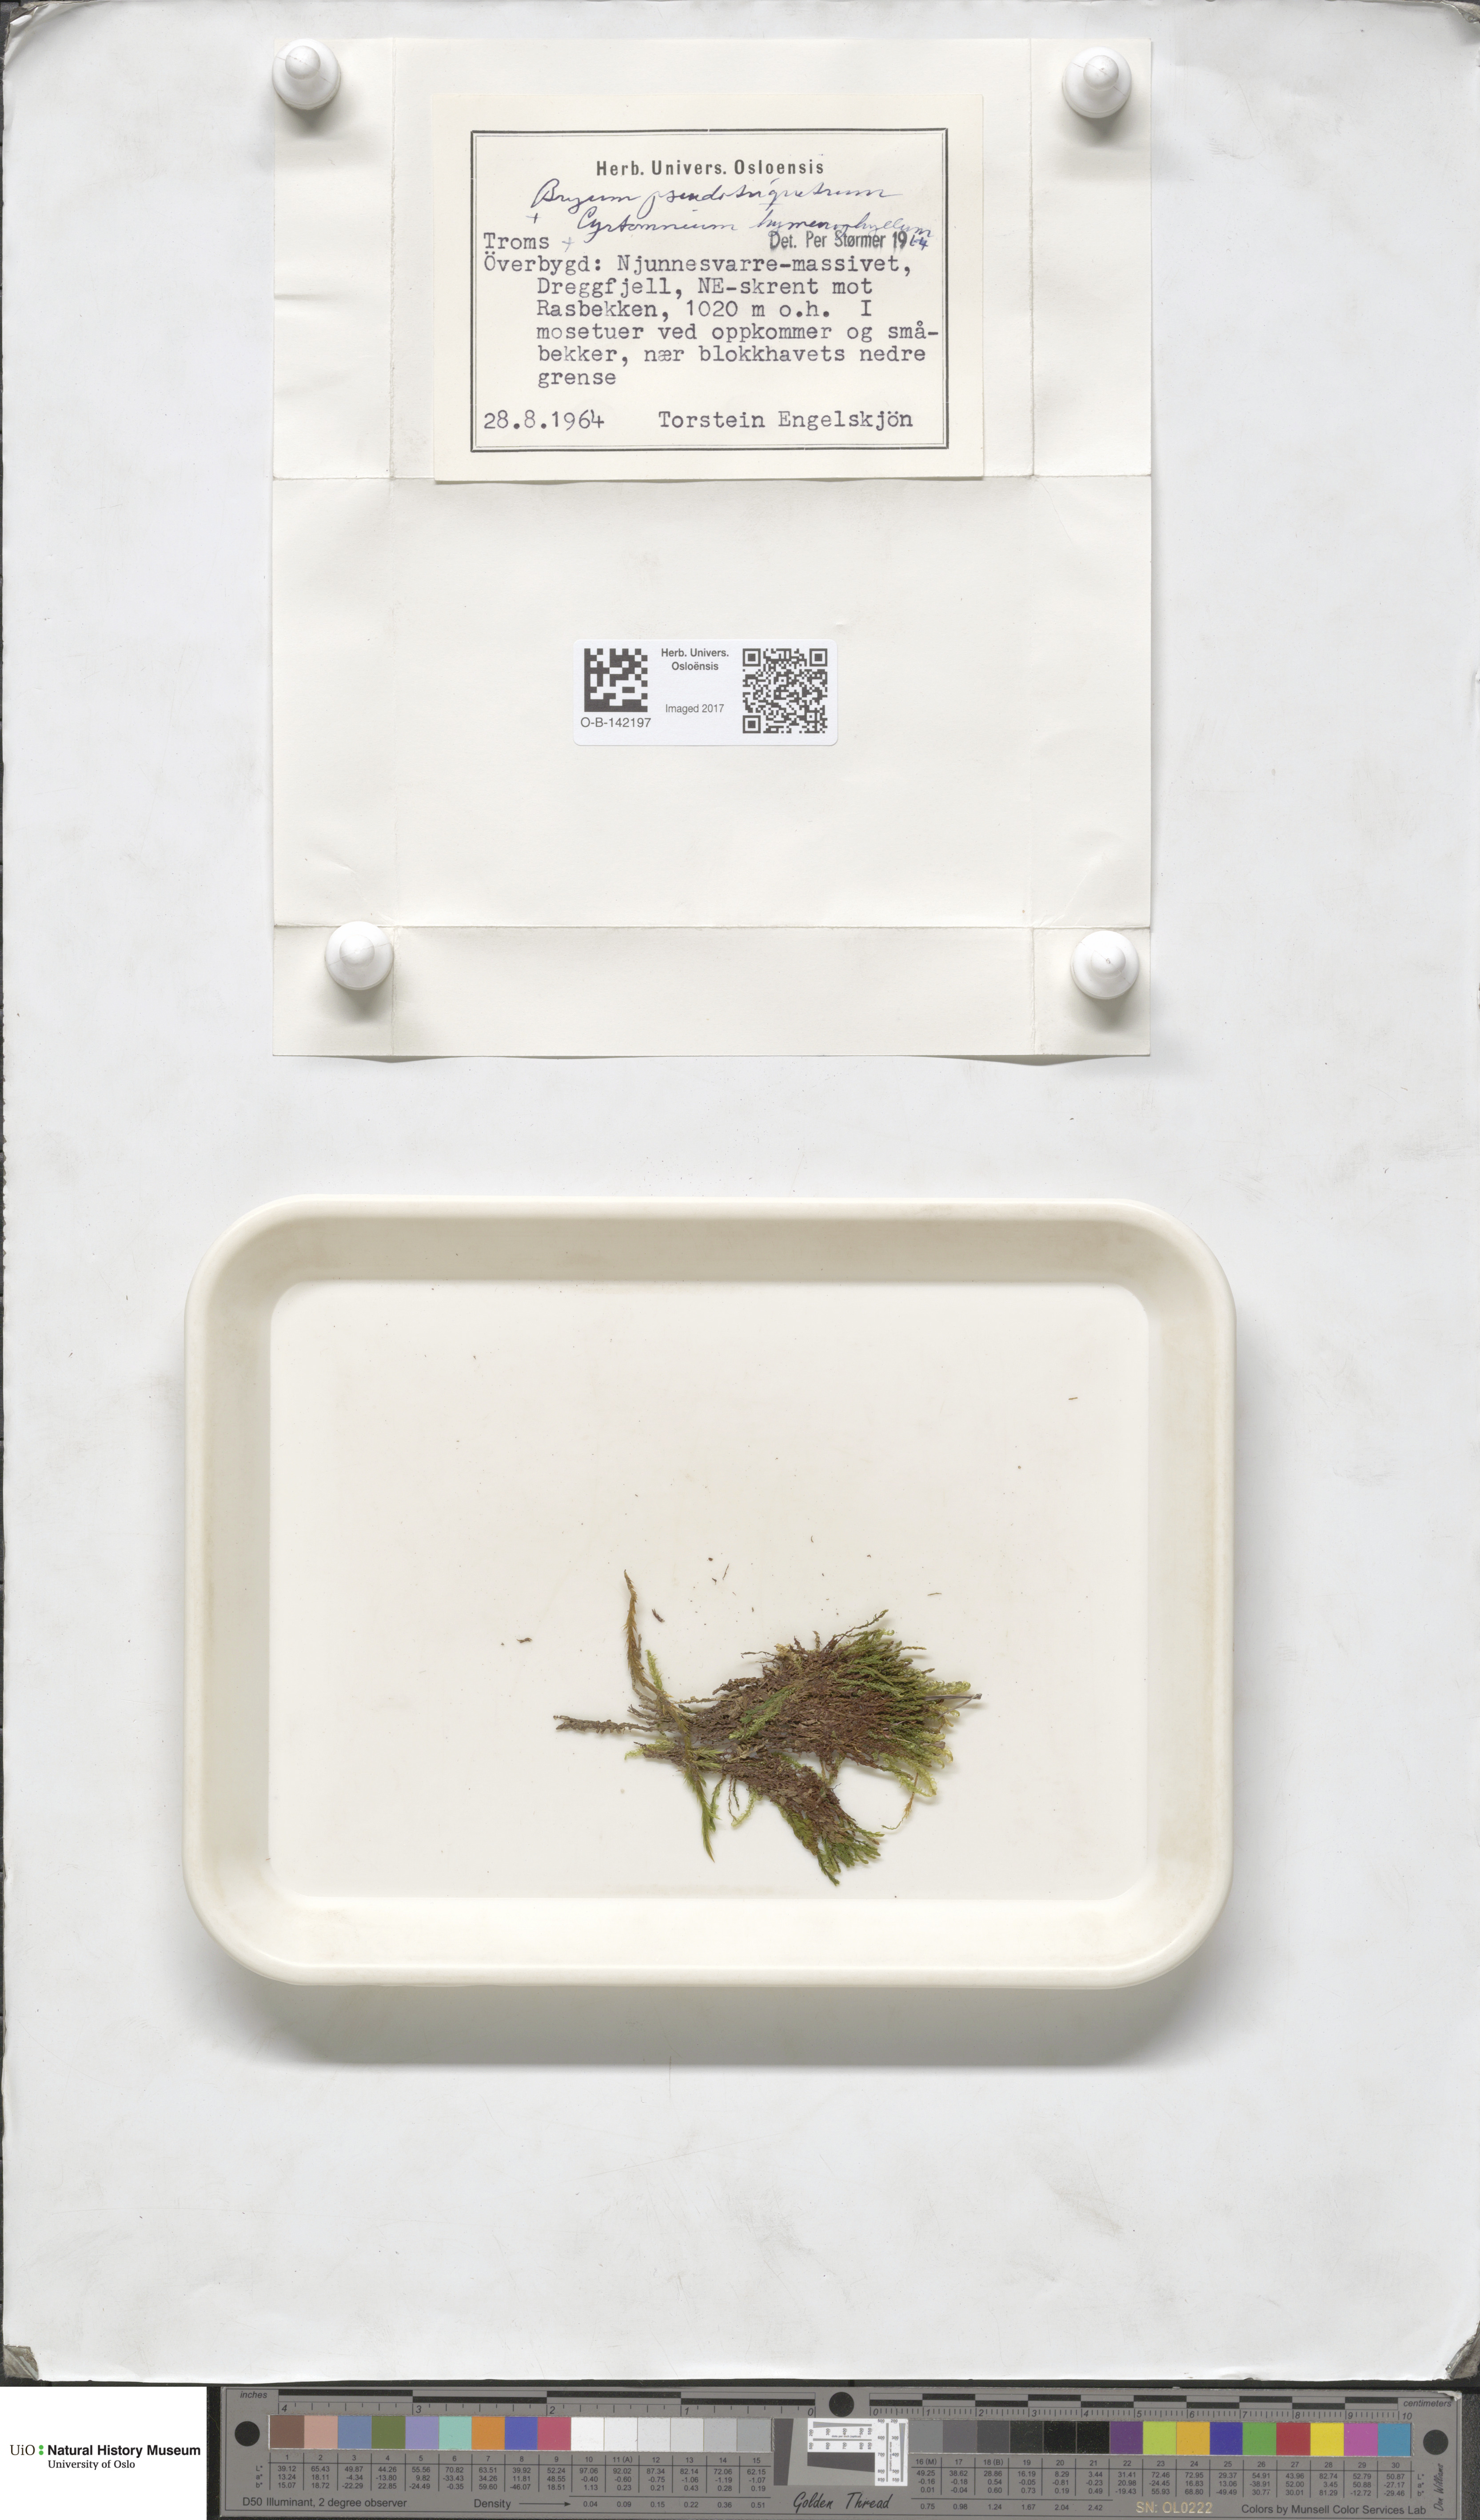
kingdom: Plantae
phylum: Bryophyta
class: Bryopsida
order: Bryales
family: Bryaceae
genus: Ptychostomum
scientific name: Ptychostomum pseudotriquetrum
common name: Long-leaved thread moss
